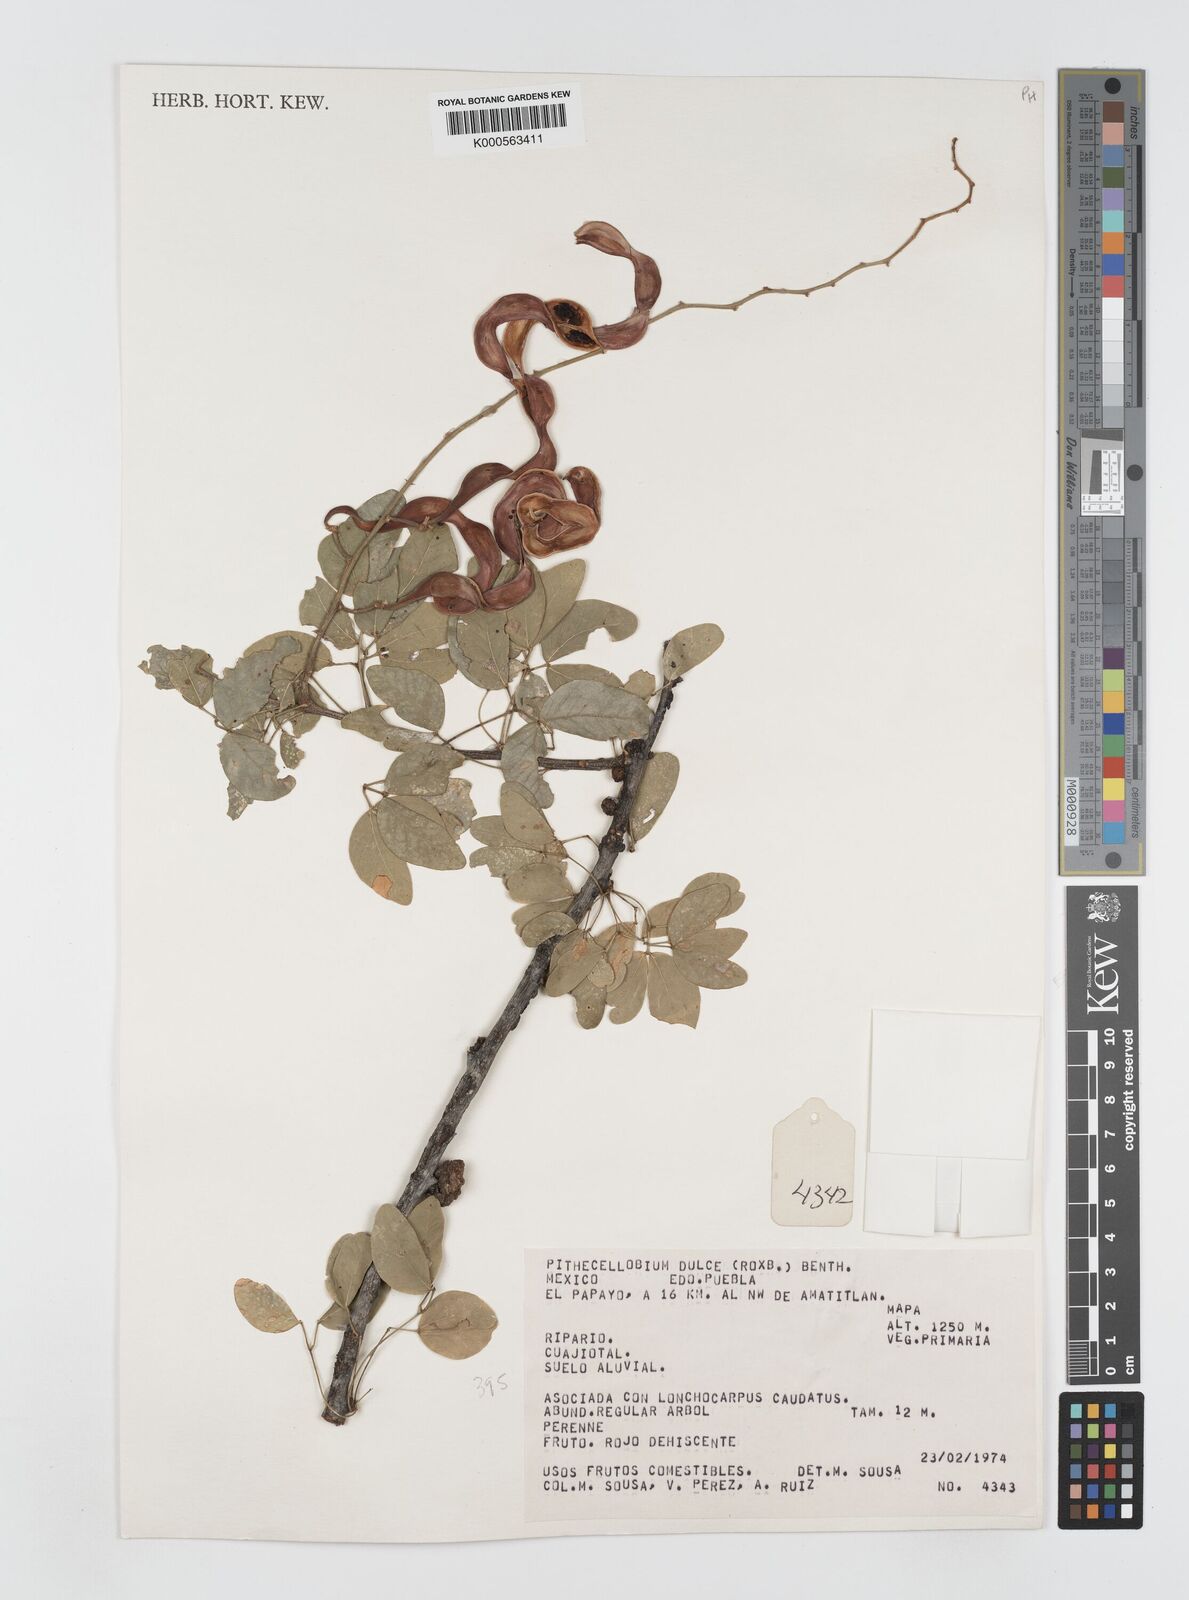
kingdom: Plantae
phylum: Tracheophyta
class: Magnoliopsida
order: Fabales
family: Fabaceae
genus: Pithecellobium
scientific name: Pithecellobium dulce
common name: Monkeypod
